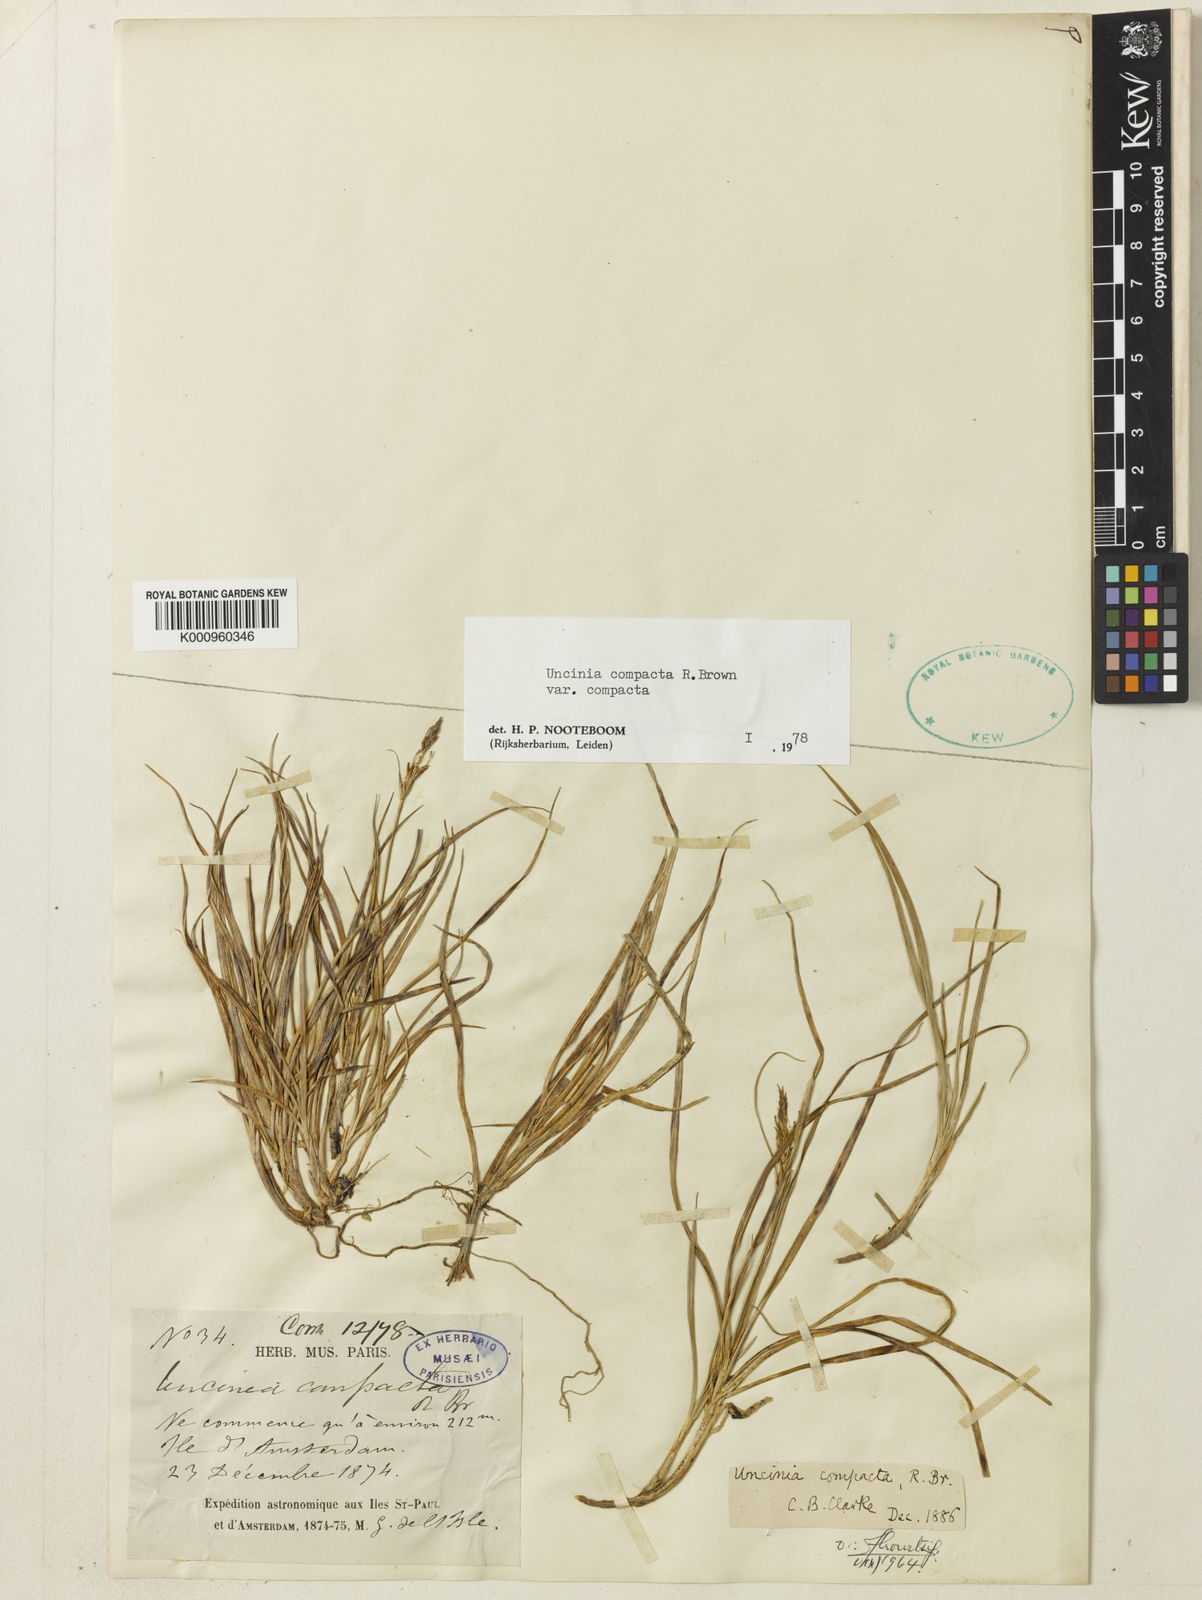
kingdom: Plantae
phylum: Tracheophyta
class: Liliopsida
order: Poales
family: Cyperaceae
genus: Carex
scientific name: Carex austrocompacta
